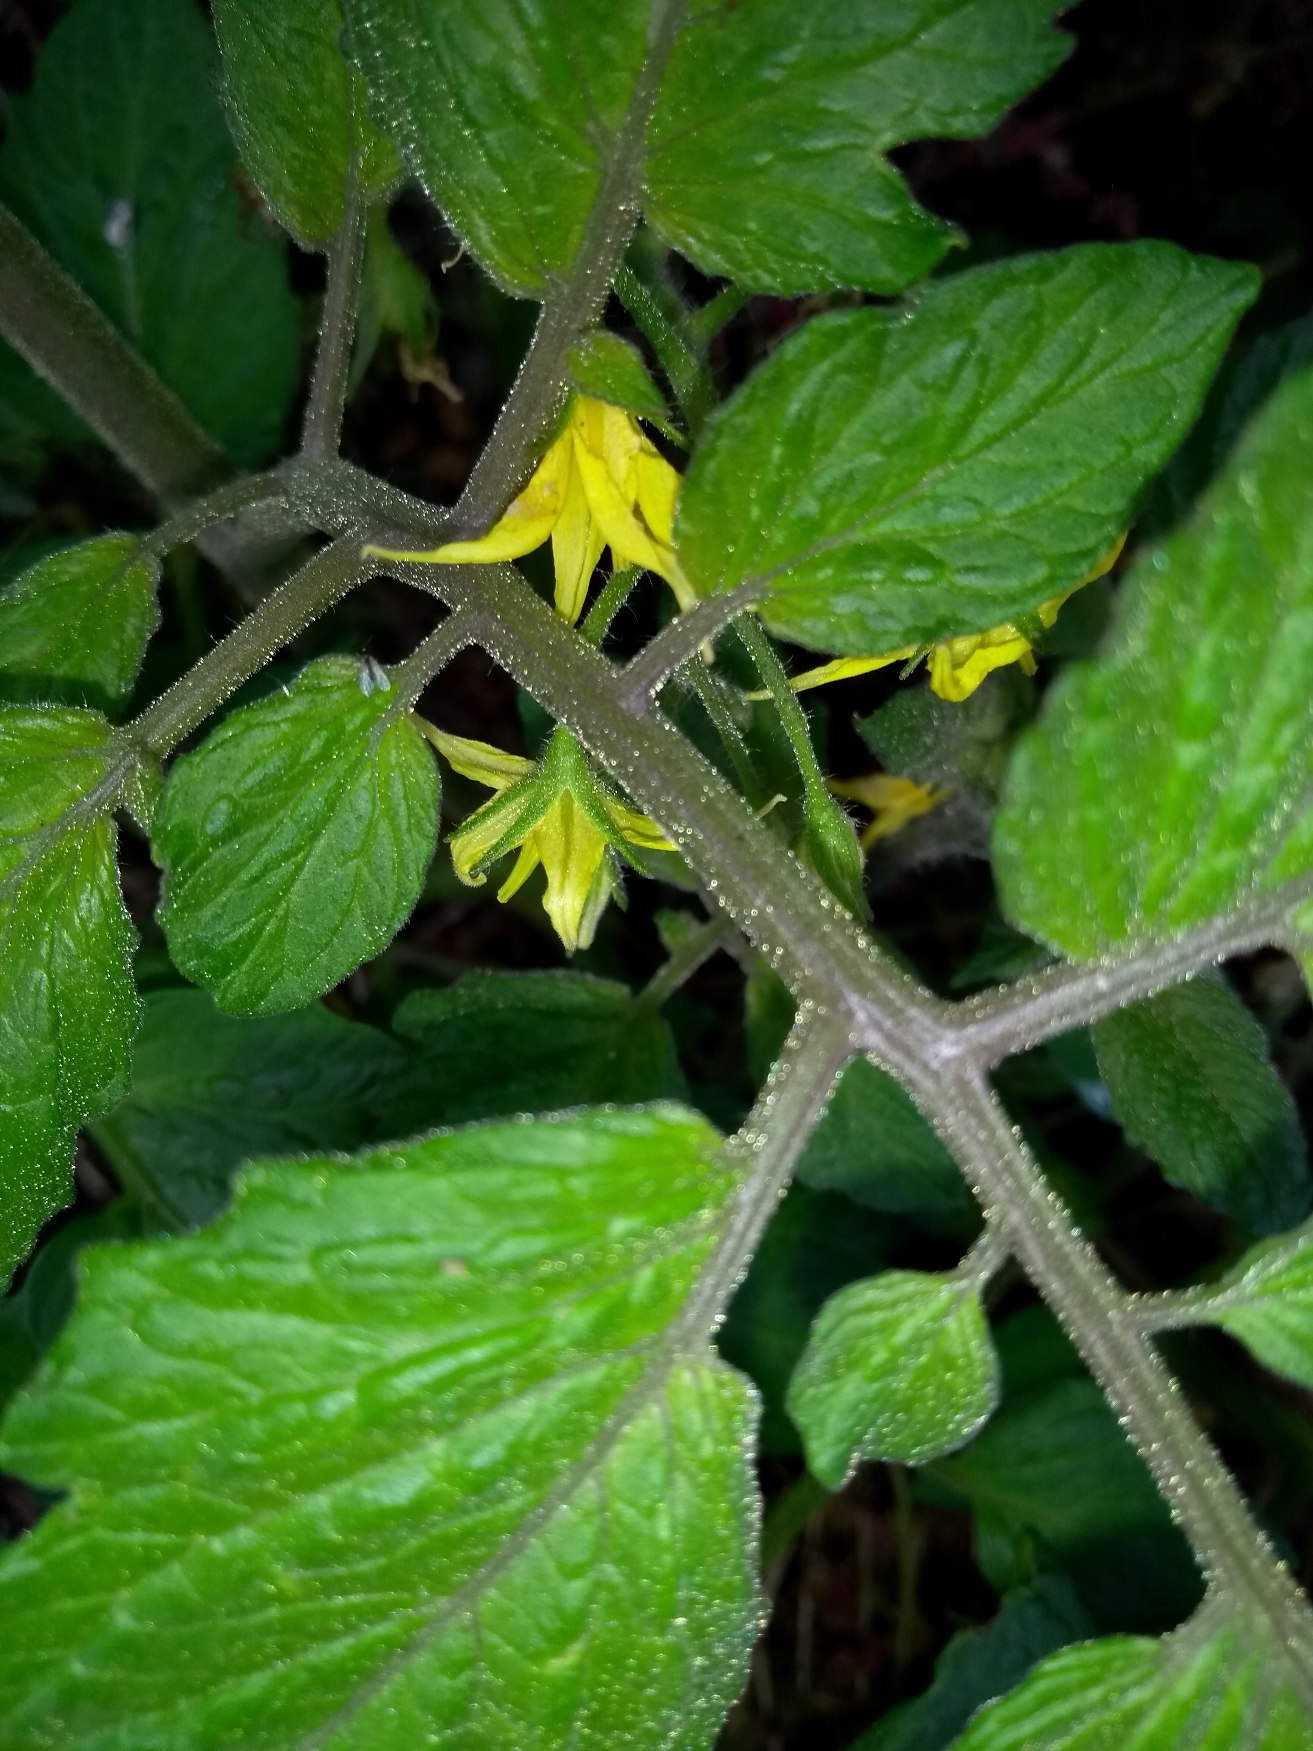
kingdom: Plantae
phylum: Tracheophyta
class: Magnoliopsida
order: Solanales
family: Solanaceae
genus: Solanum
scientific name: Solanum lycopersicum
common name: Tomat
